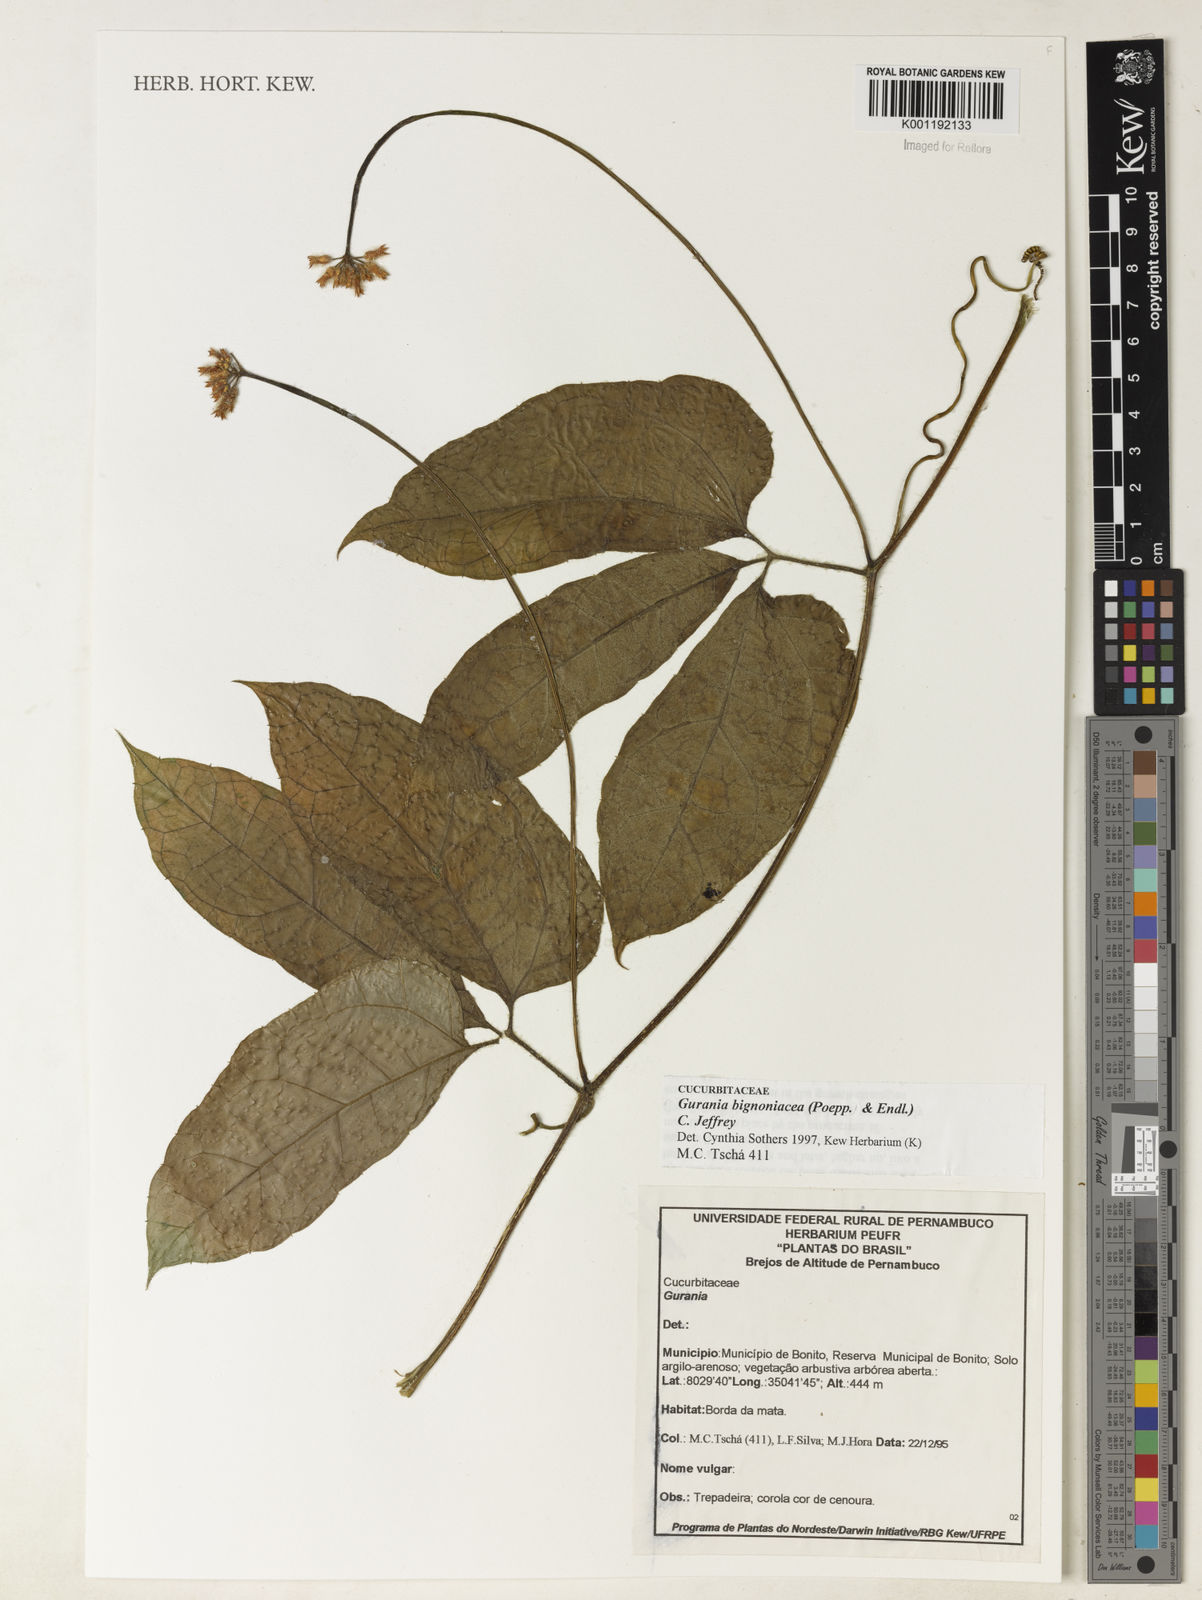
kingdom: Plantae
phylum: Tracheophyta
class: Magnoliopsida
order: Cucurbitales
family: Cucurbitaceae
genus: Gurania
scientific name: Gurania bignoniacea
